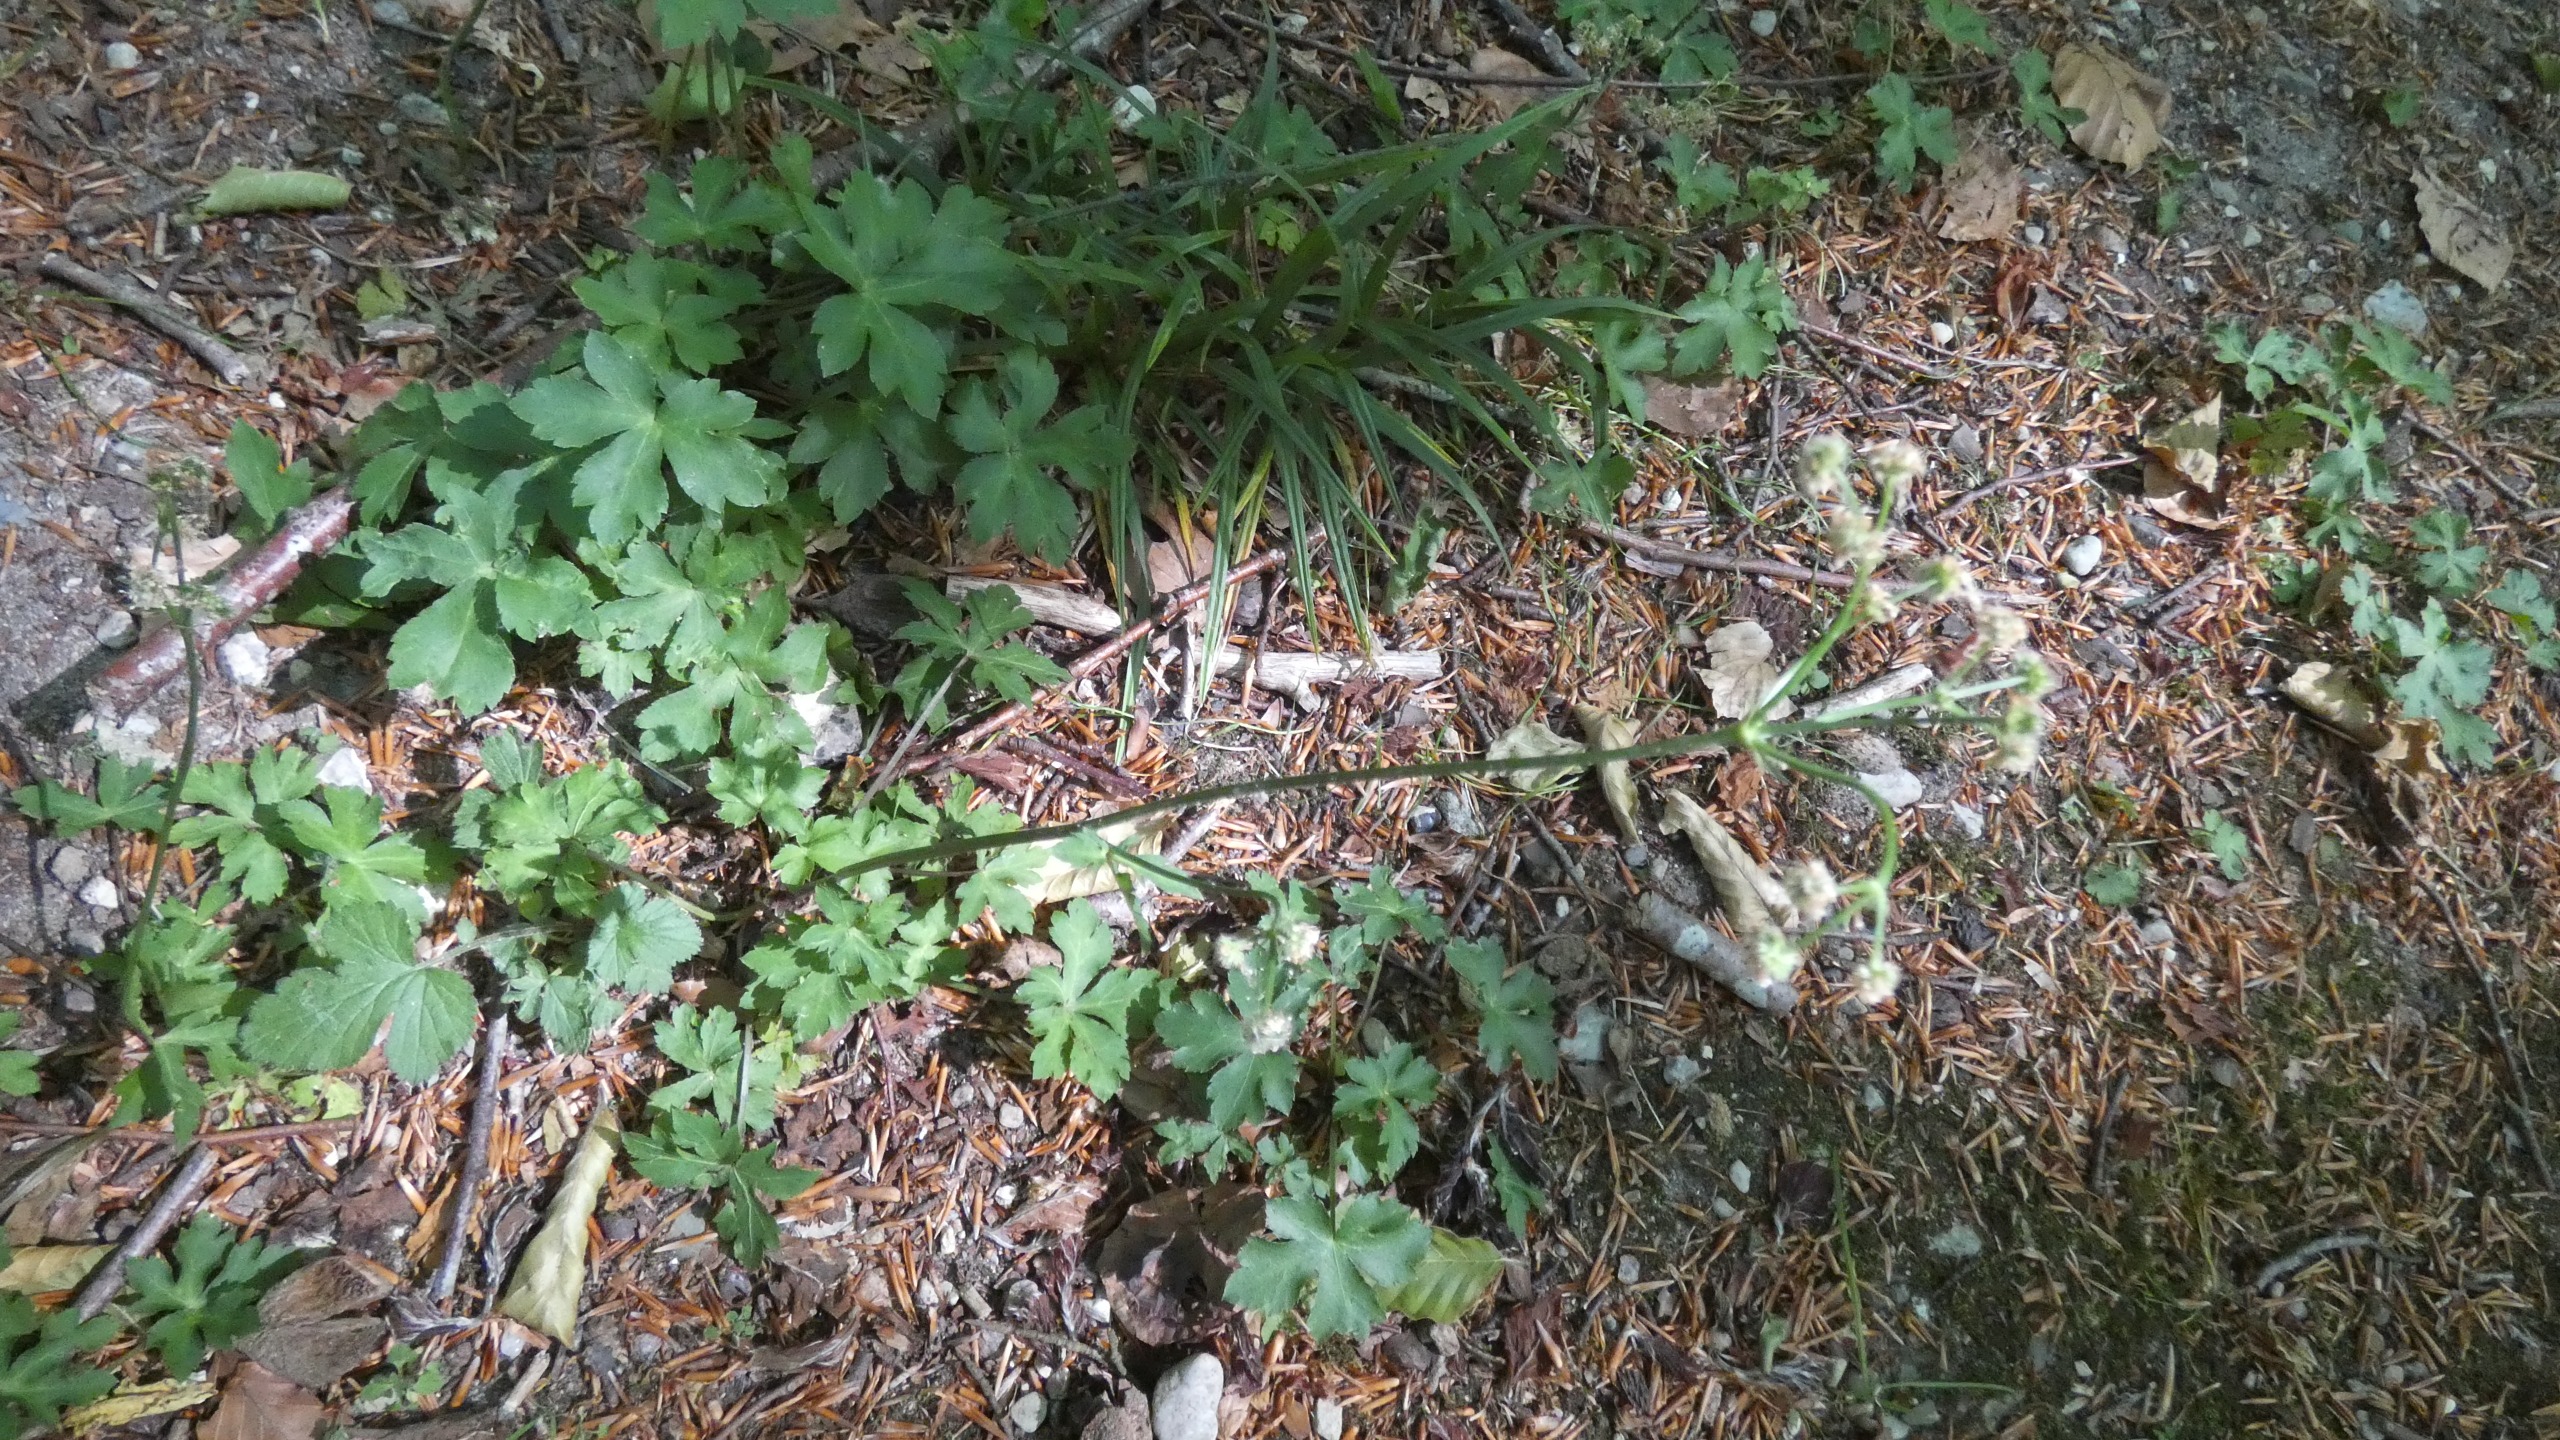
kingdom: Plantae
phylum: Tracheophyta
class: Magnoliopsida
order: Apiales
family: Apiaceae
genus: Sanicula
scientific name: Sanicula europaea
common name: Sanikel
